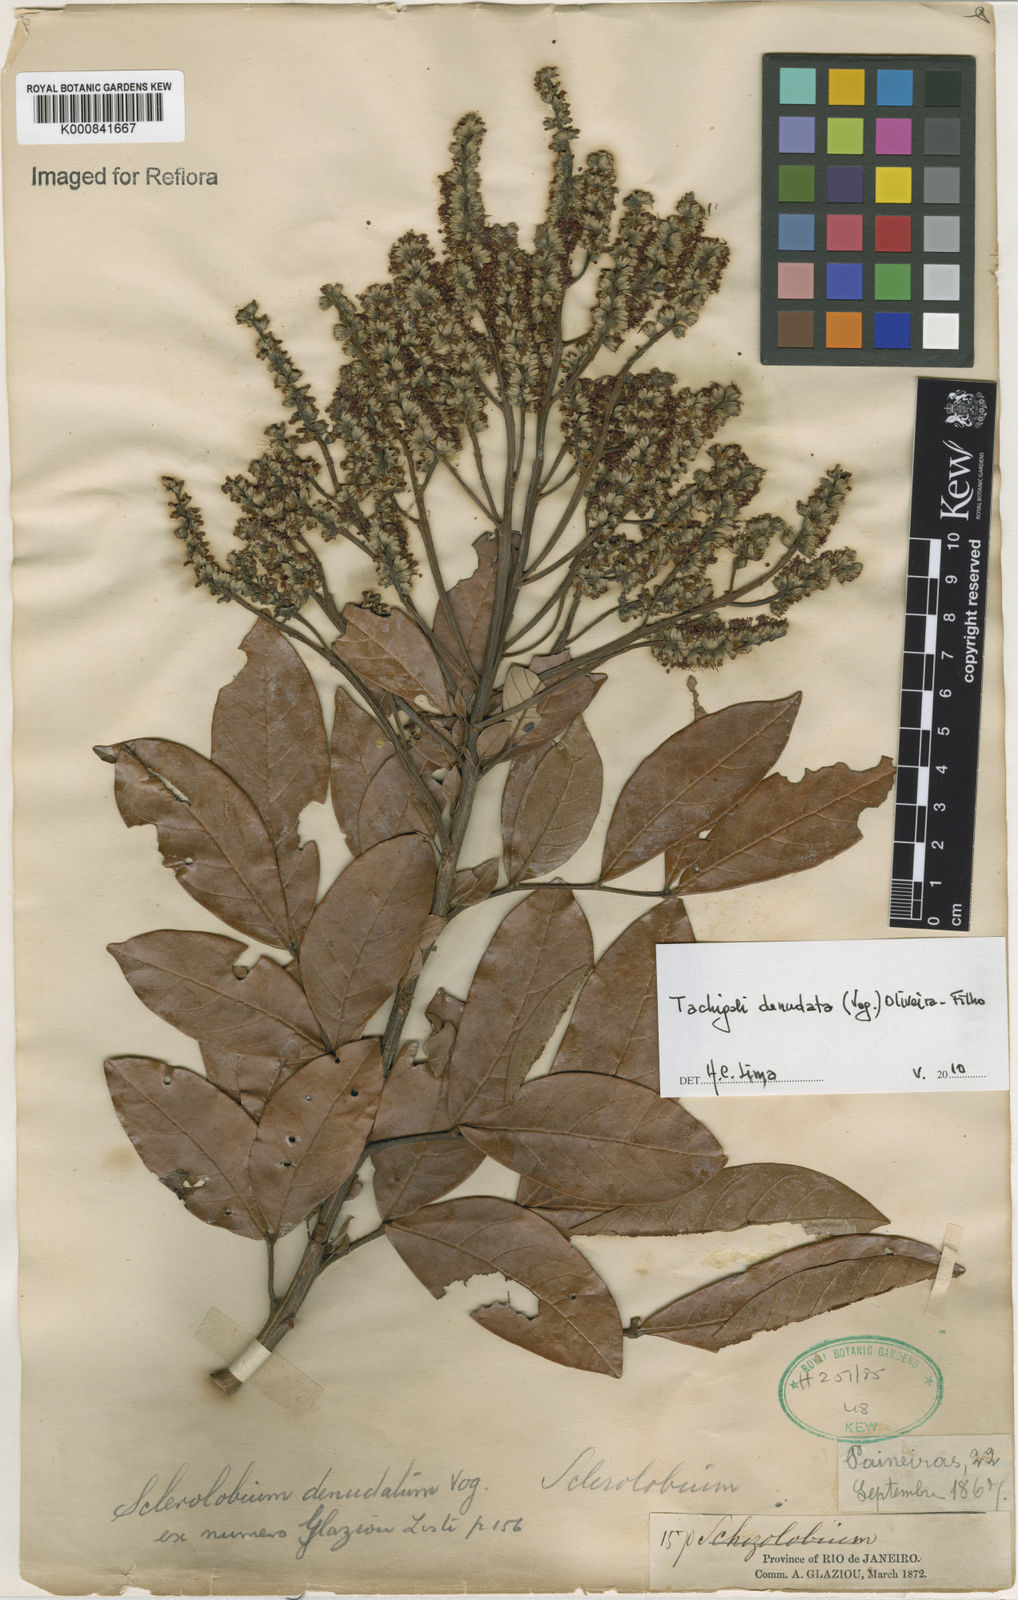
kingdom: Plantae
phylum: Tracheophyta
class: Magnoliopsida
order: Fabales
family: Fabaceae
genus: Tachigali
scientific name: Tachigali denudata
